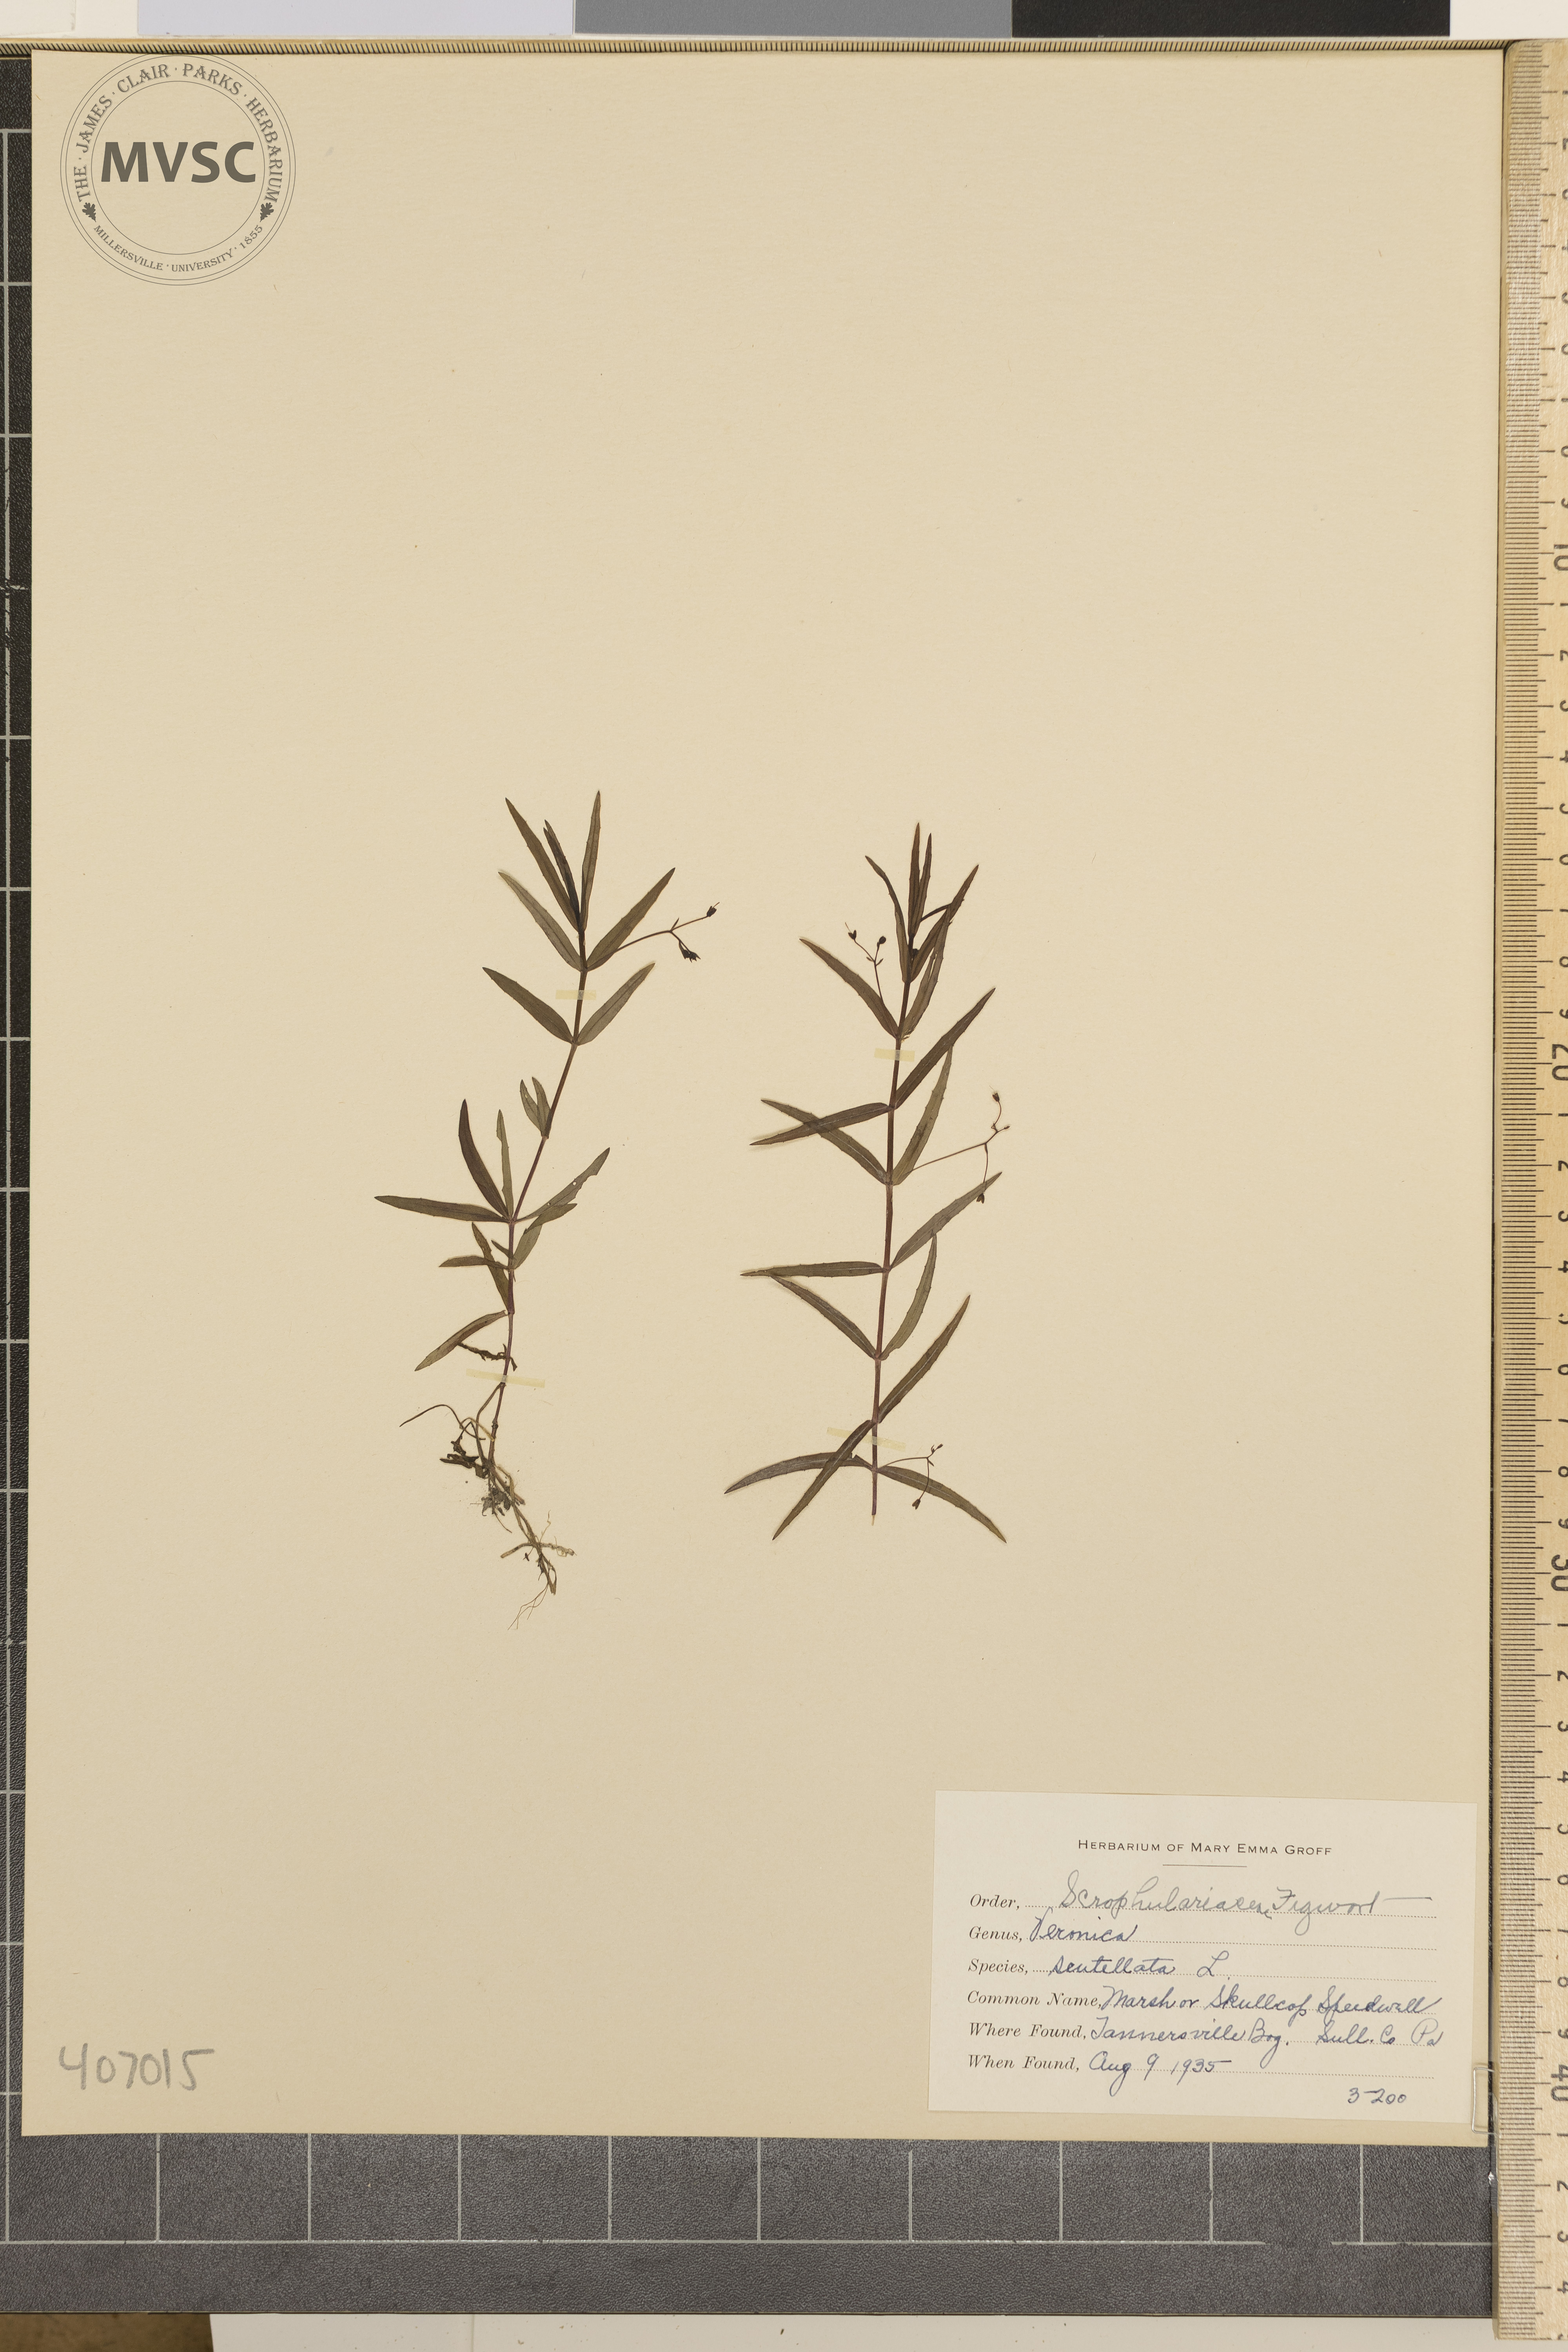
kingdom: Plantae
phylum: Tracheophyta
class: Magnoliopsida
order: Lamiales
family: Plantaginaceae
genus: Veronica
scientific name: Veronica scutellata
